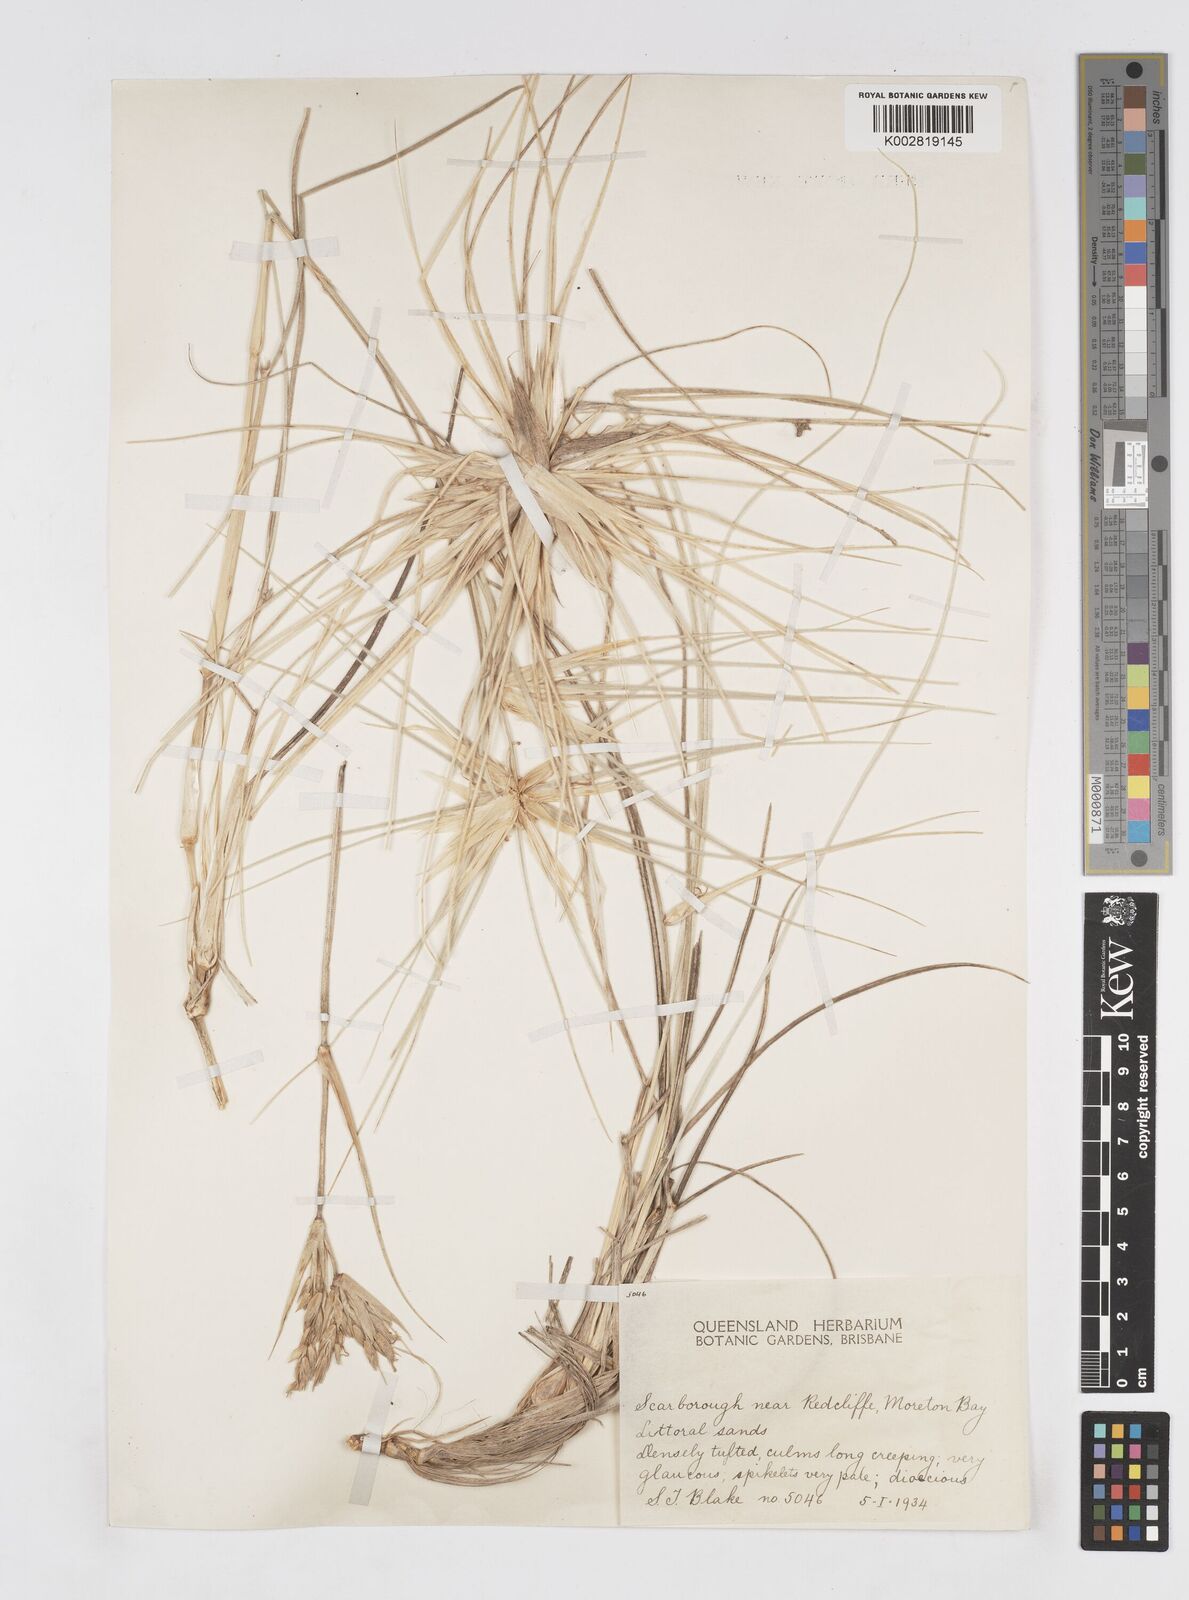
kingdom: Plantae
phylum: Tracheophyta
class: Liliopsida
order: Poales
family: Poaceae
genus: Spinifex
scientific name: Spinifex hirsutus
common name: Hairy spinifex
